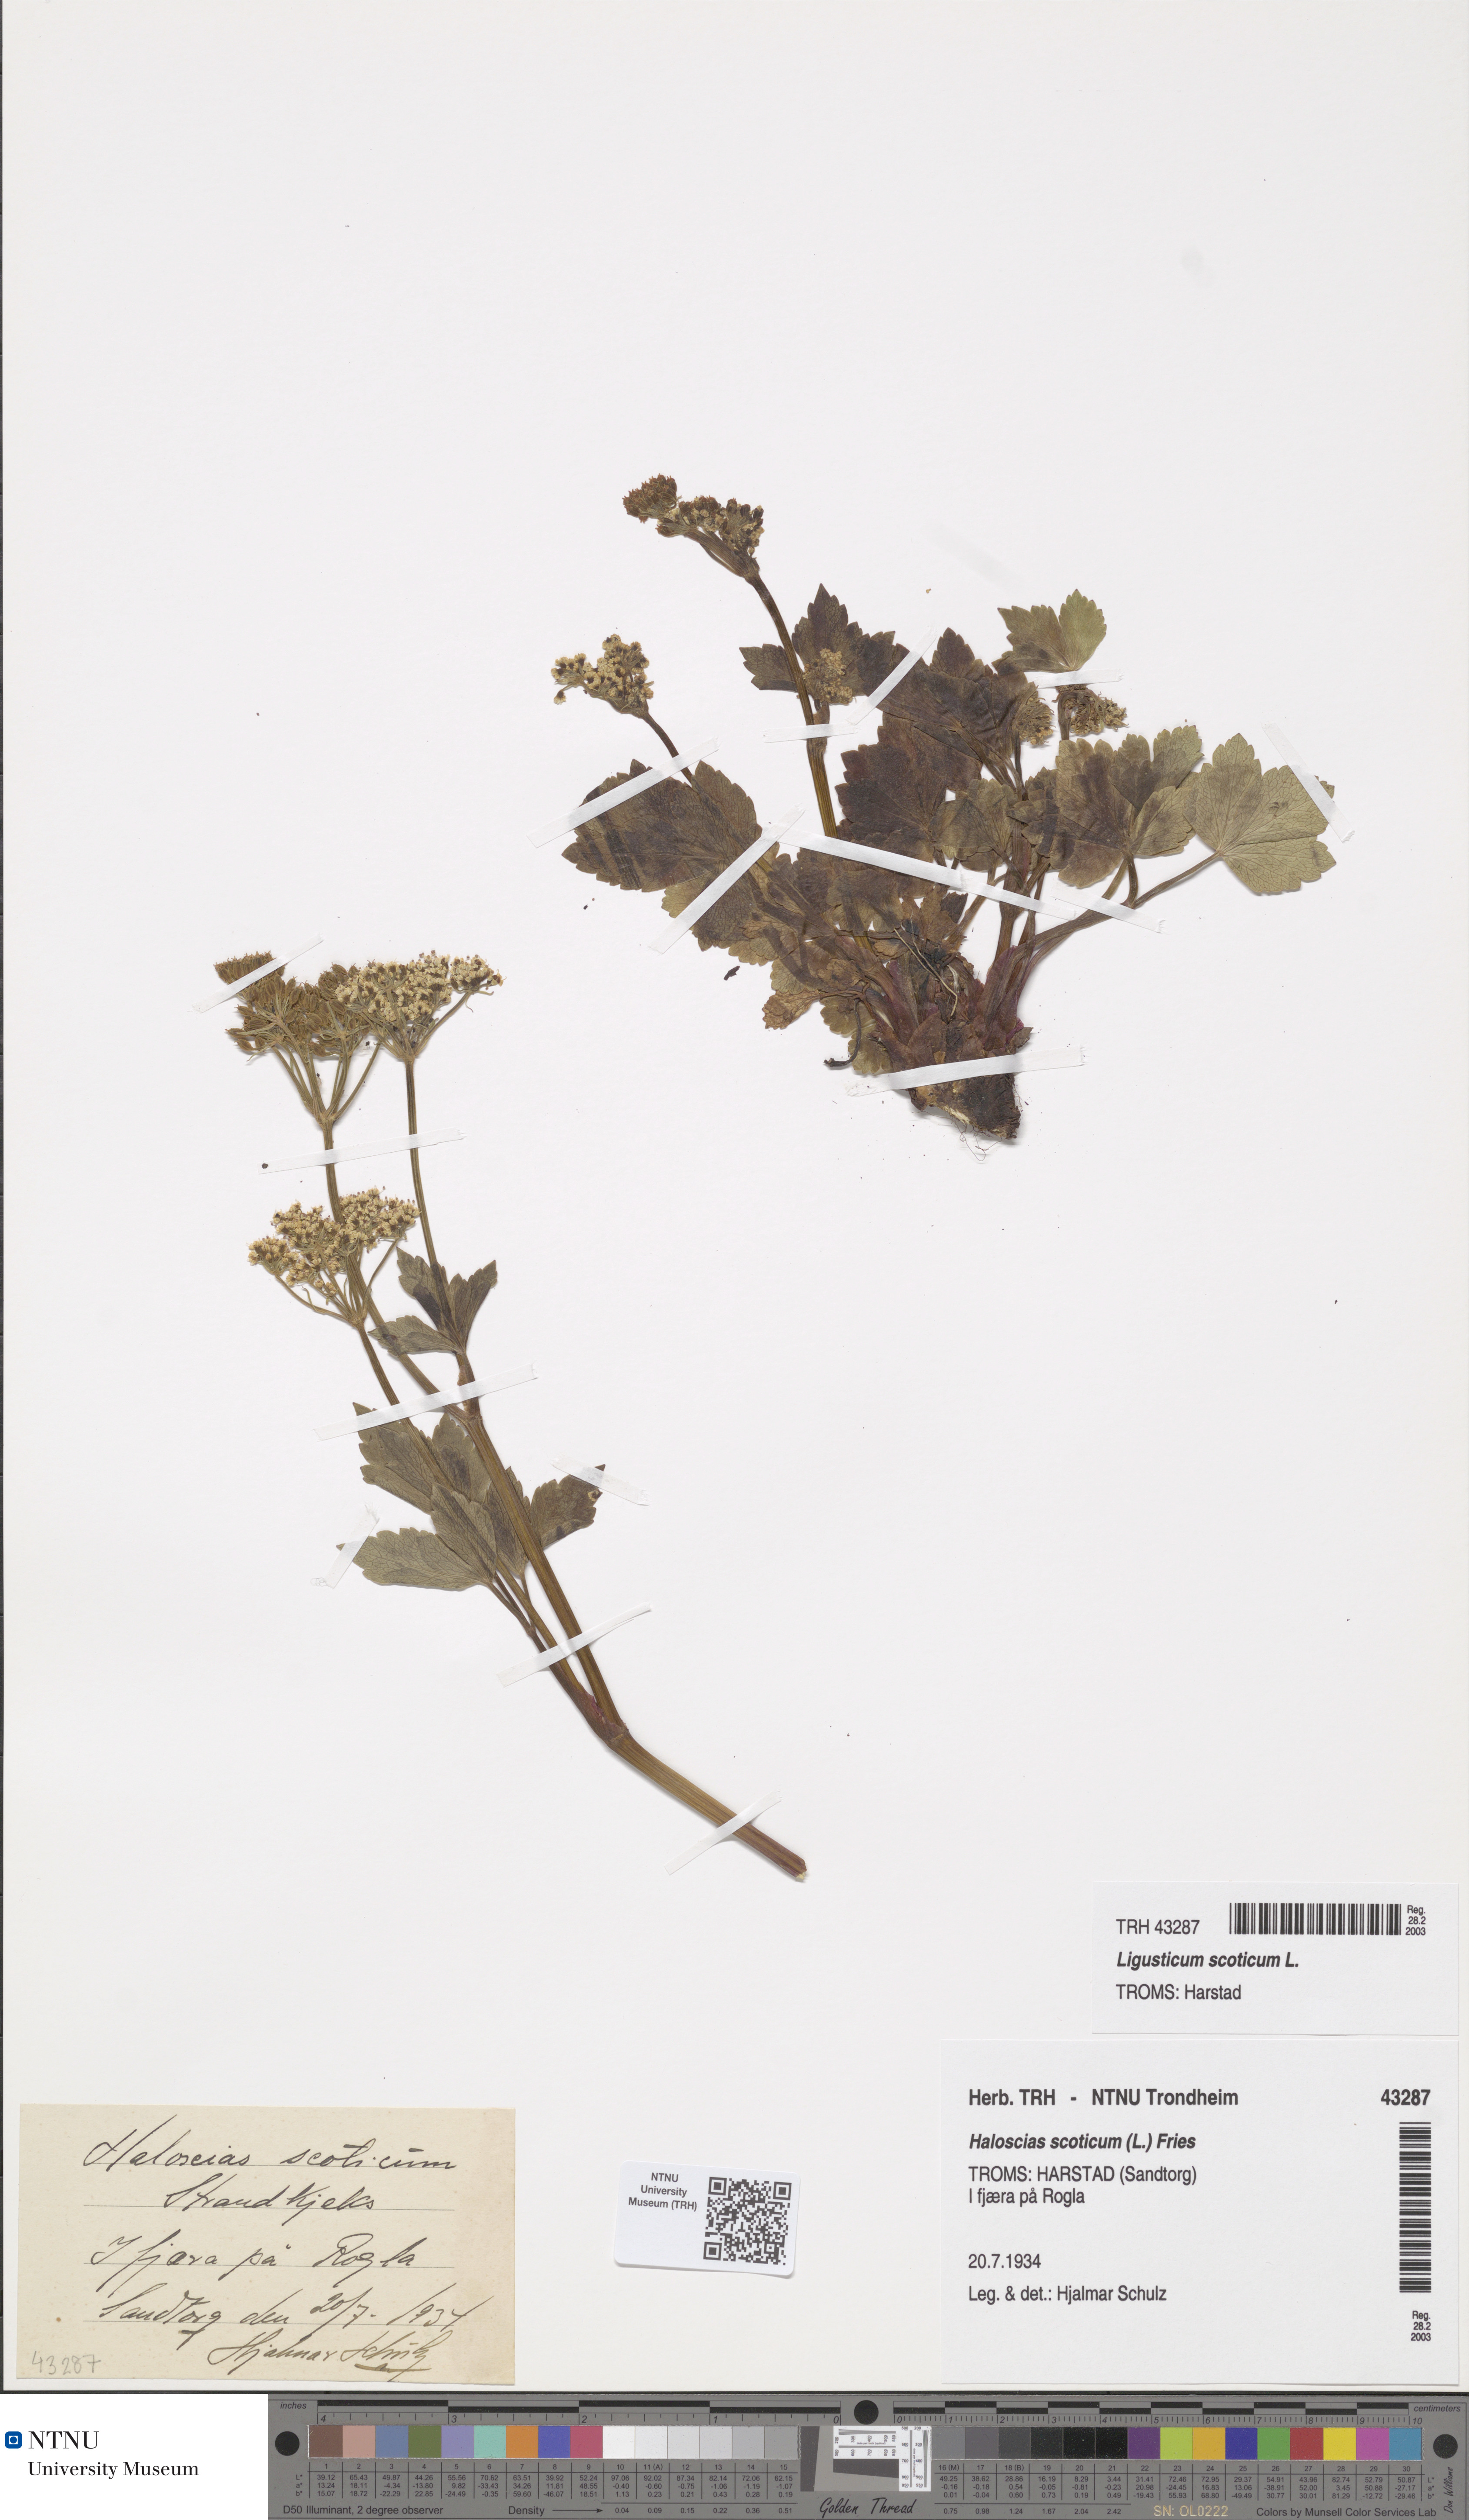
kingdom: Plantae
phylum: Tracheophyta
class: Magnoliopsida
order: Apiales
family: Apiaceae
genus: Ligusticum
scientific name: Ligusticum scothicum
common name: Beach lovage
